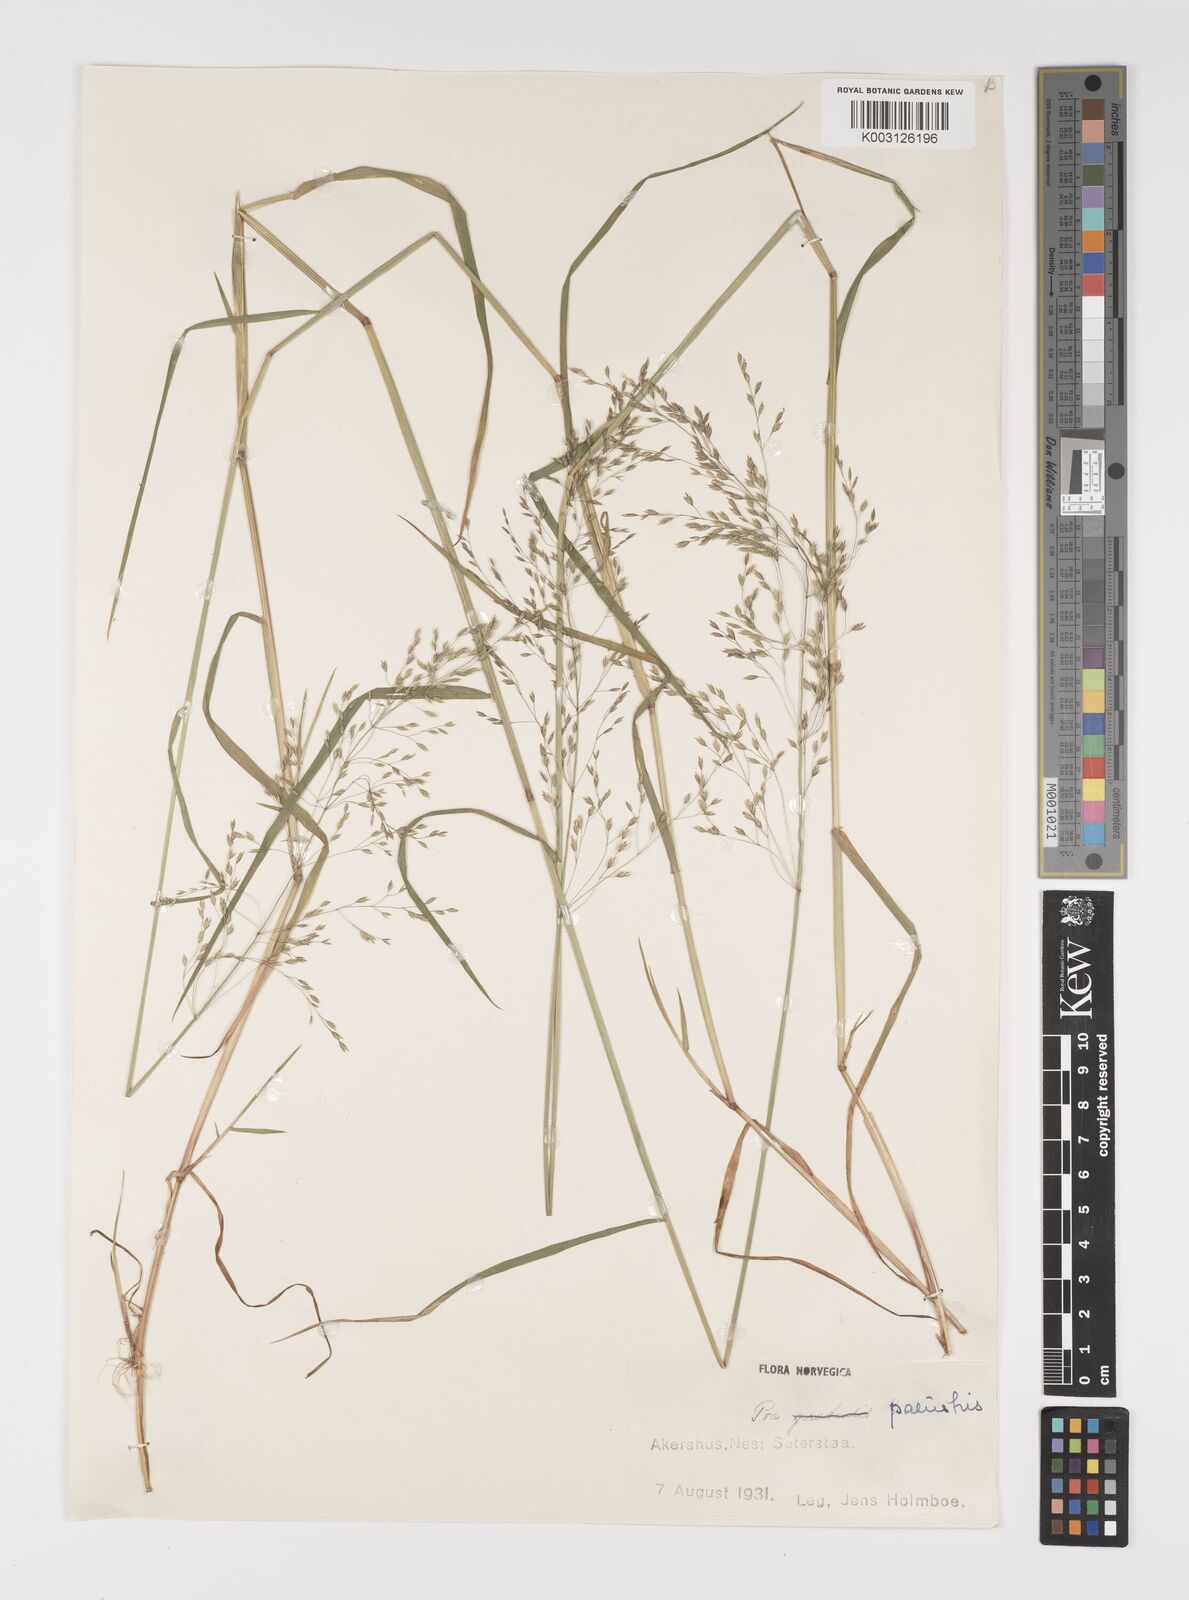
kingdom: Plantae
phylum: Tracheophyta
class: Liliopsida
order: Poales
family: Poaceae
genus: Poa
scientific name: Poa palustris
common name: Swamp meadow-grass
